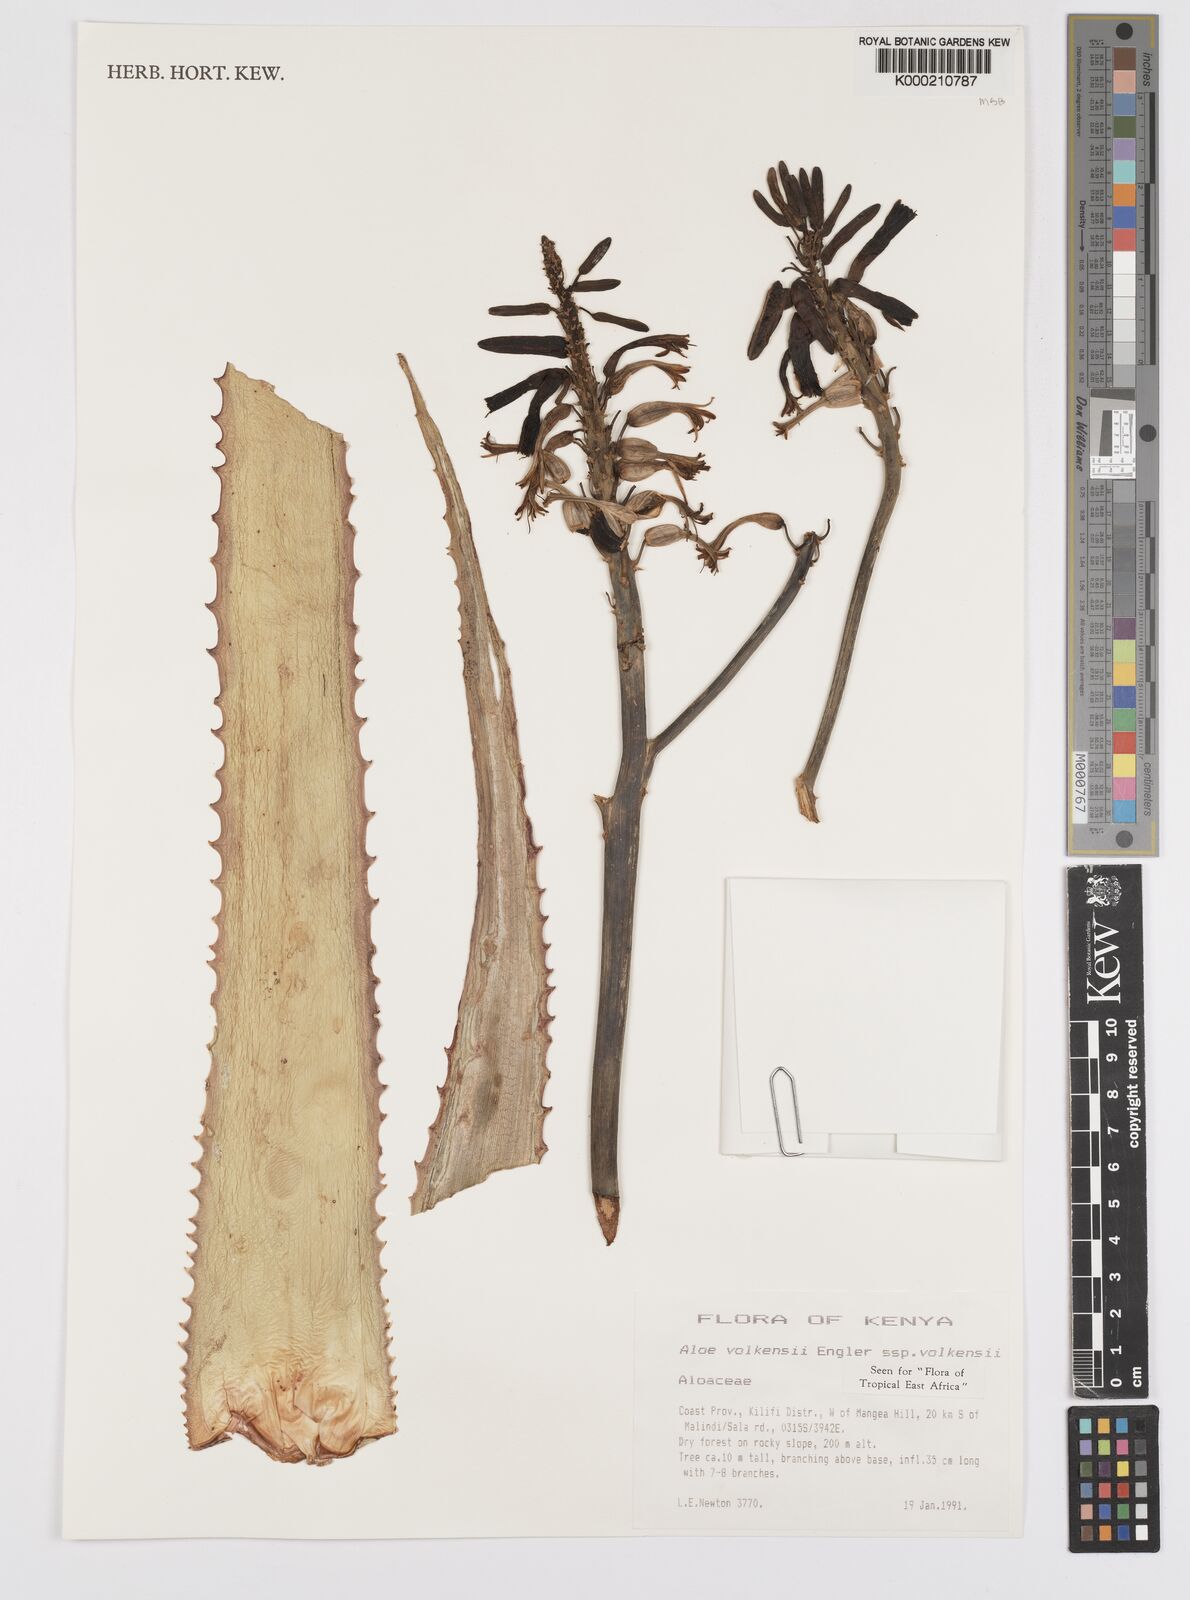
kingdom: Plantae
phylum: Tracheophyta
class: Liliopsida
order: Asparagales
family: Asphodelaceae
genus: Aloe
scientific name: Aloe volkensii
